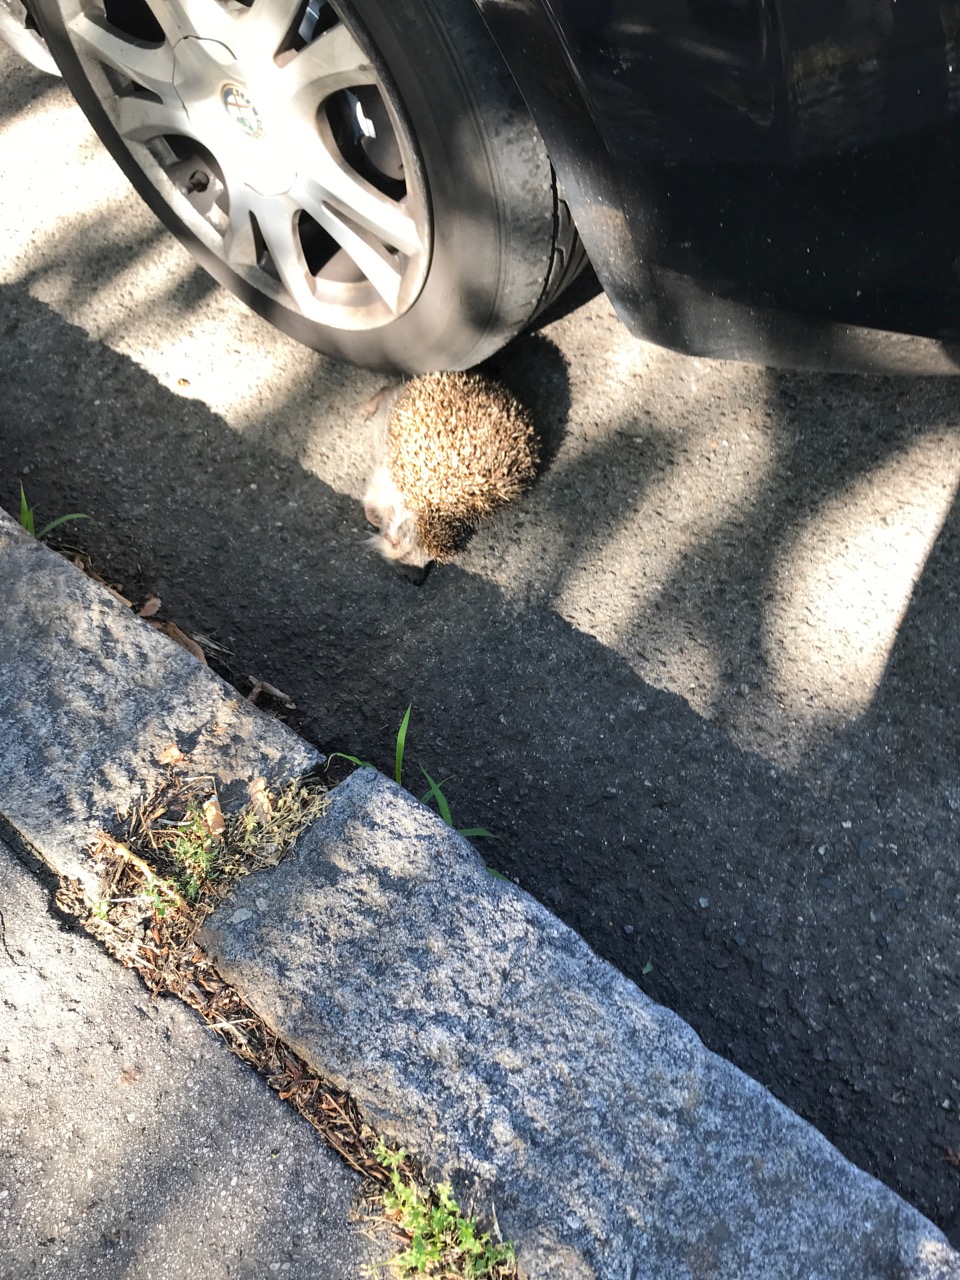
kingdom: Animalia
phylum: Chordata
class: Mammalia
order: Erinaceomorpha
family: Erinaceidae
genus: Erinaceus
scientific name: Erinaceus
